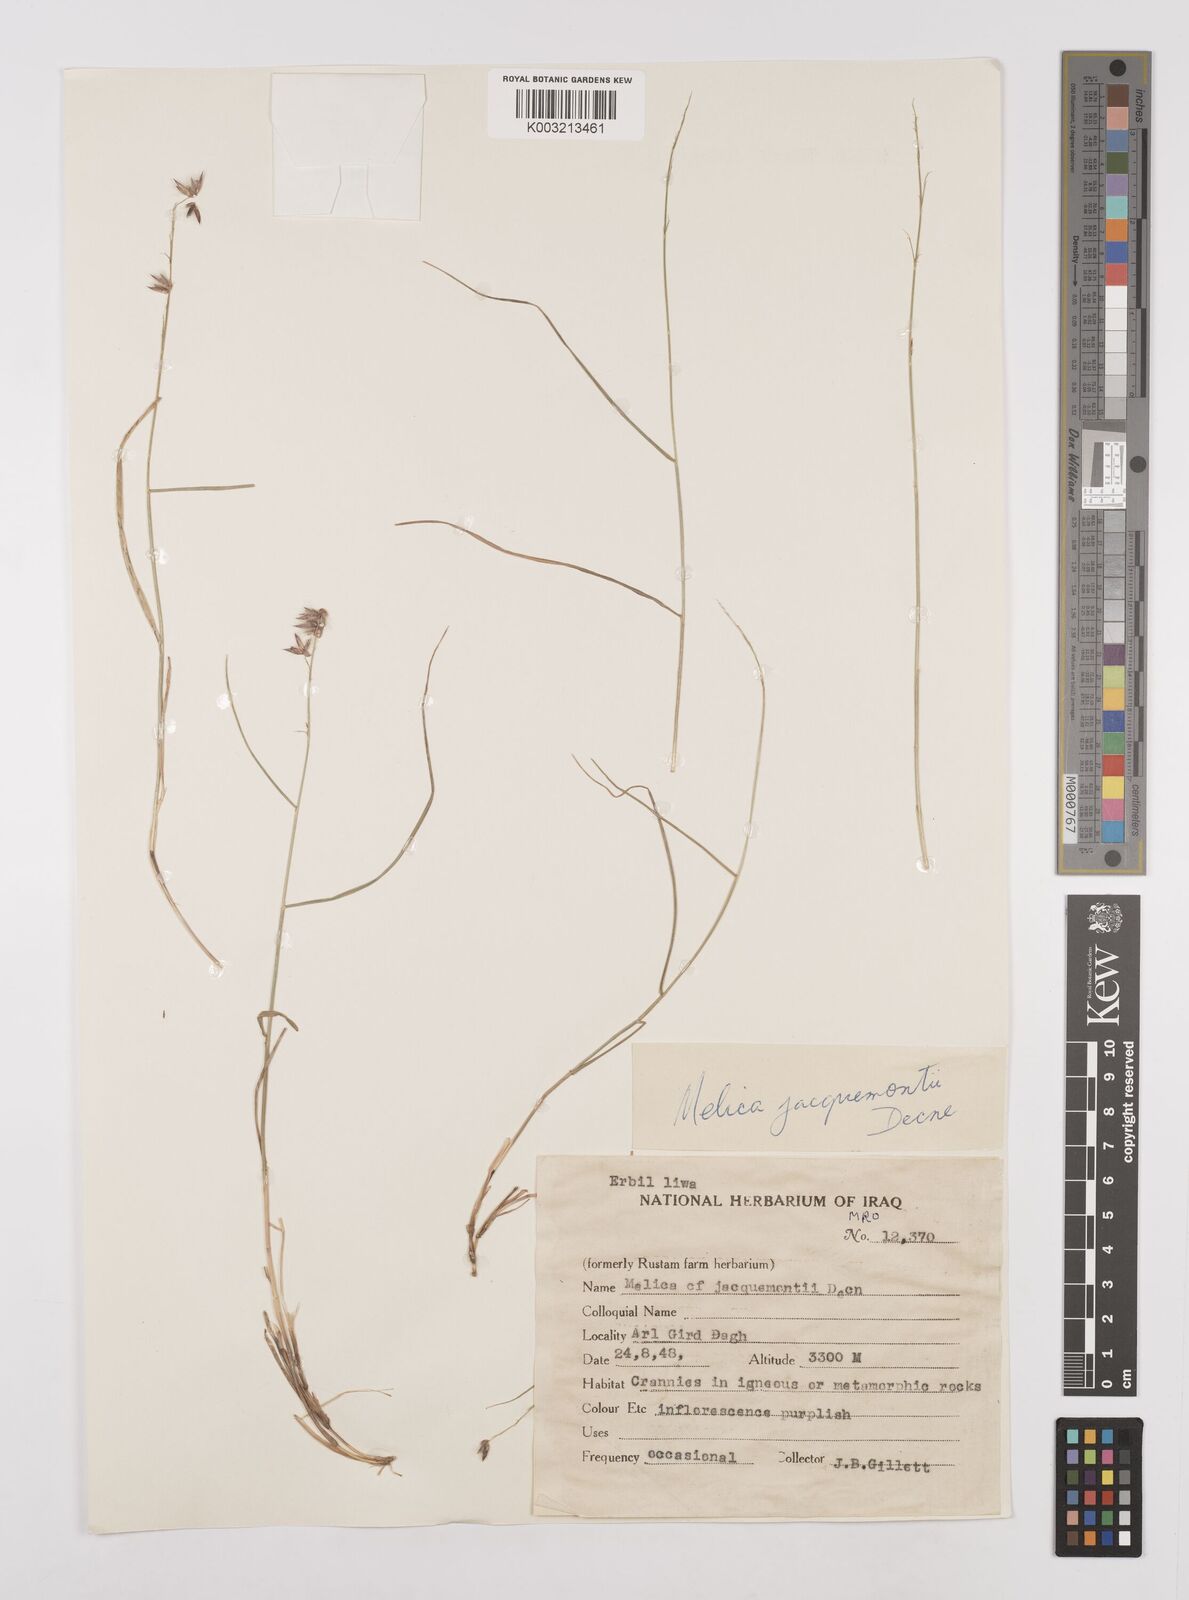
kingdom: Plantae
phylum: Tracheophyta
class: Liliopsida
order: Poales
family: Poaceae
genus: Melica
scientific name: Melica persica
